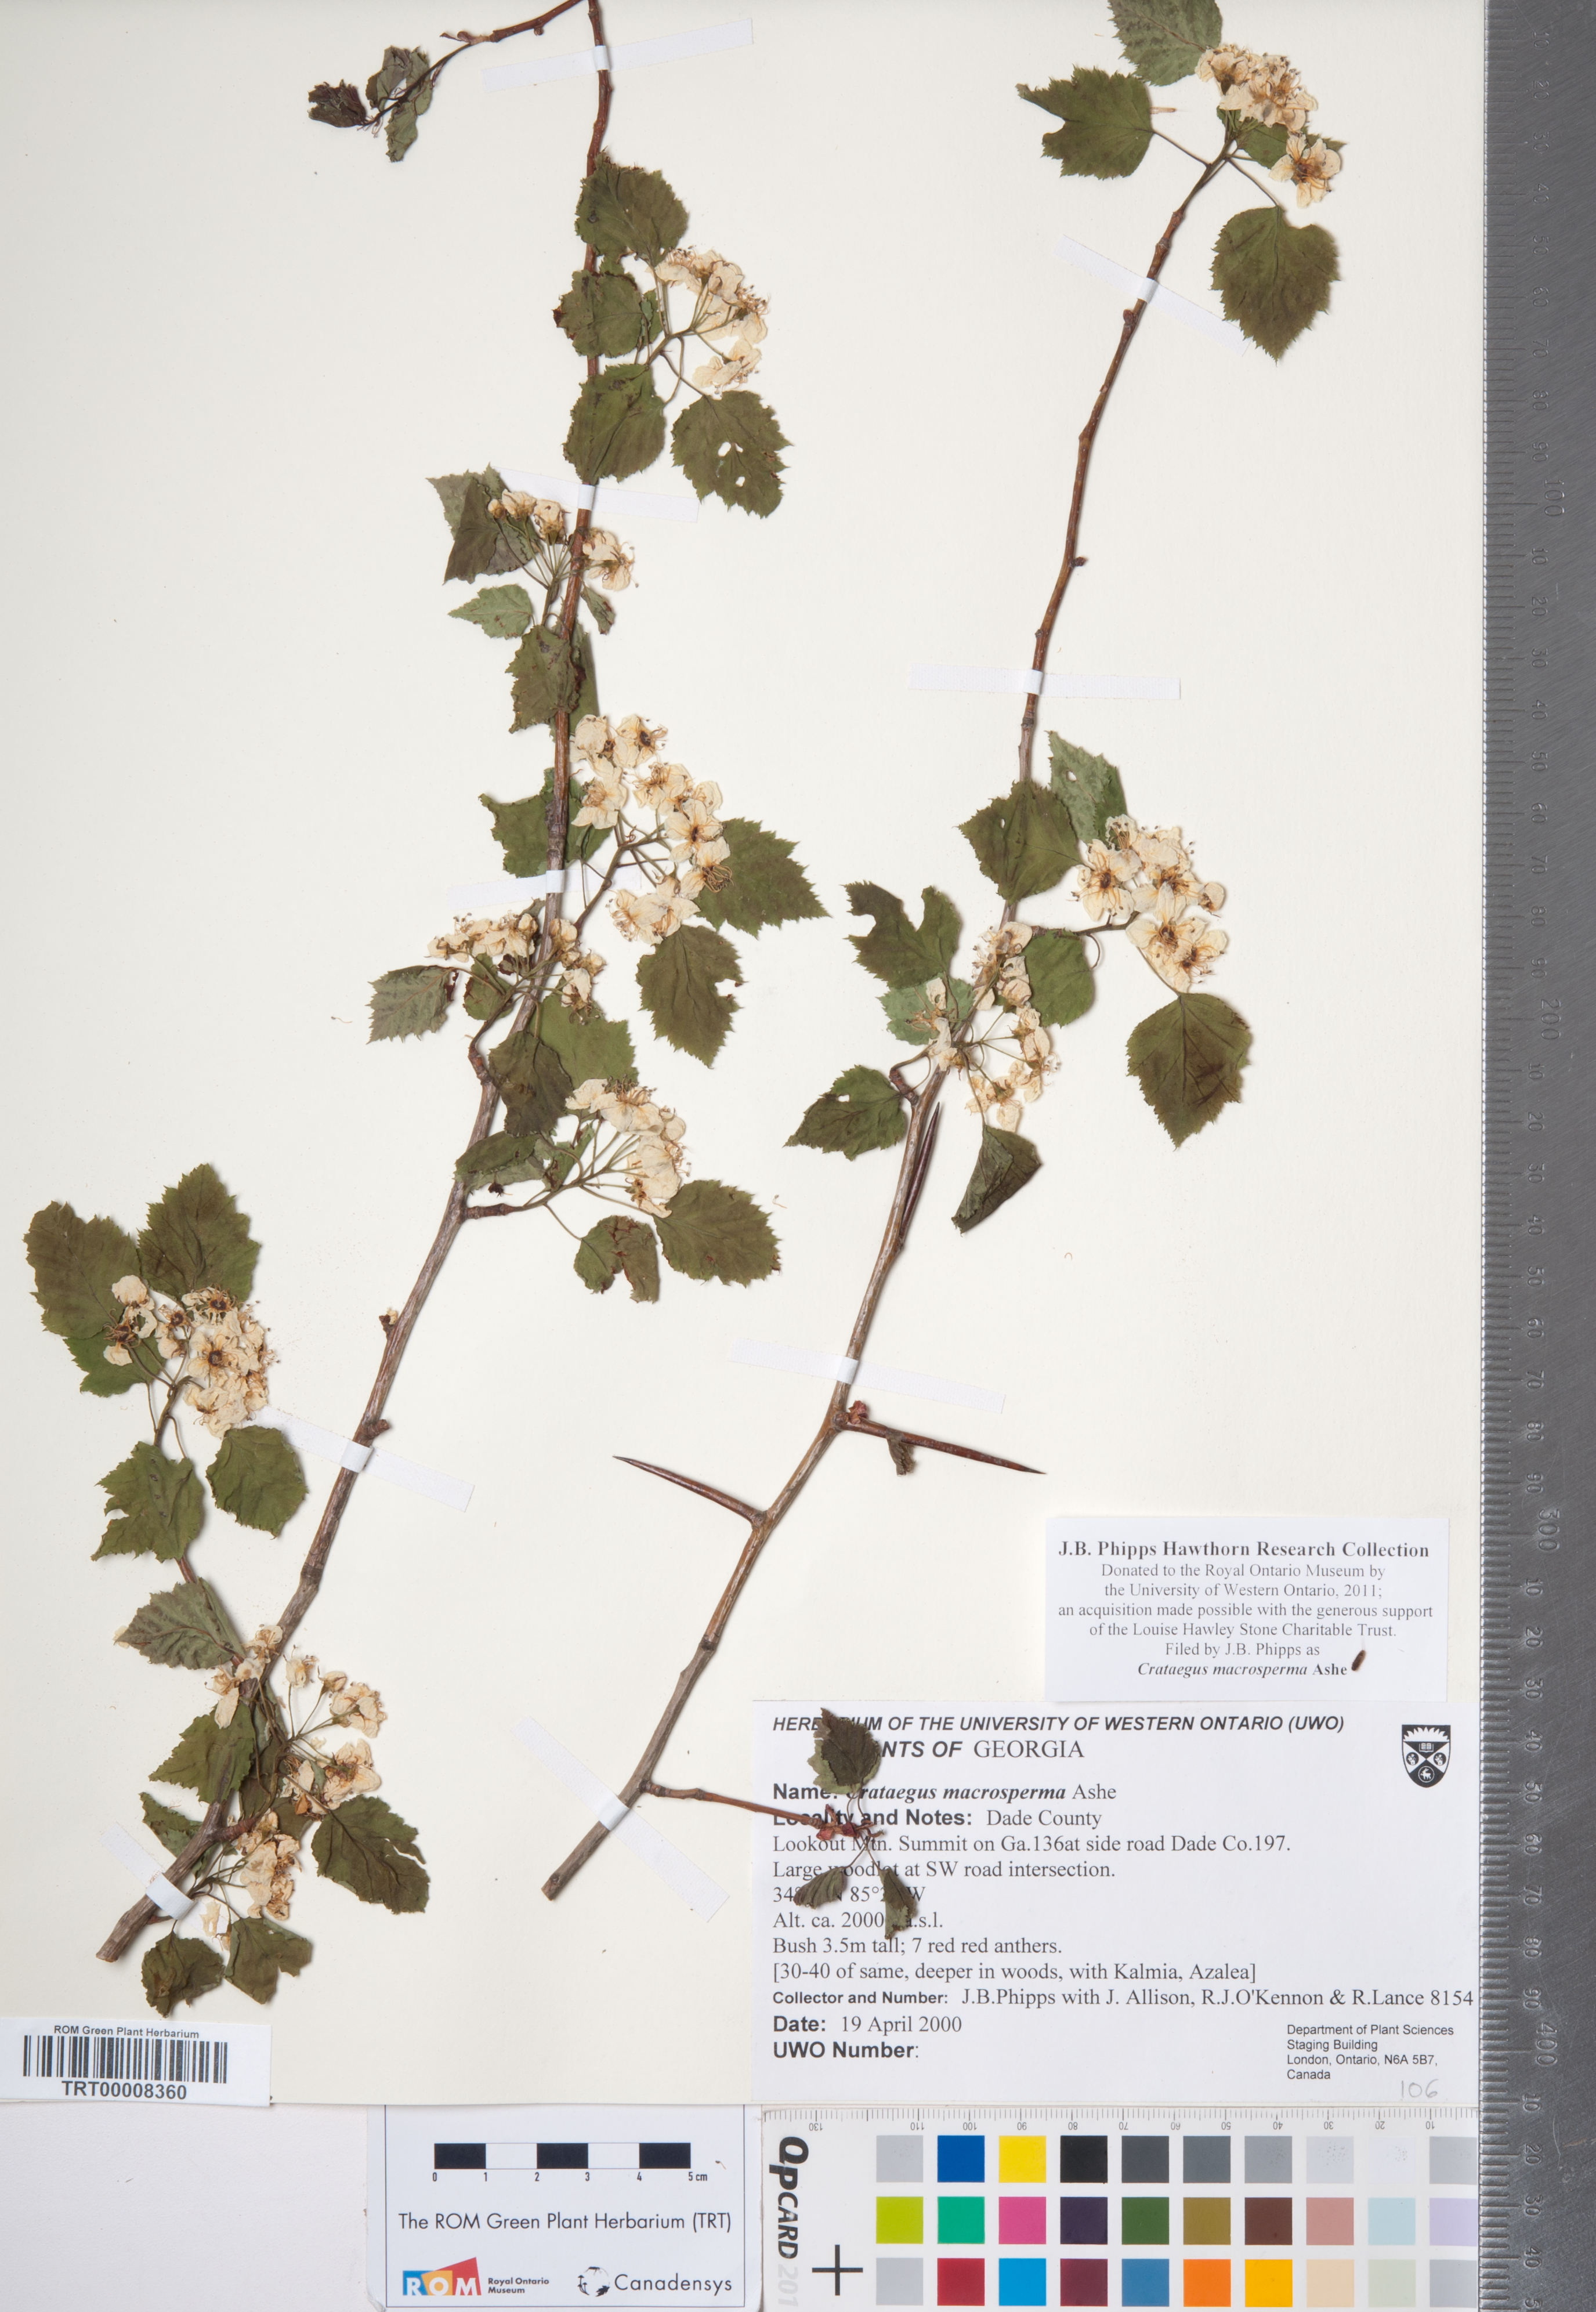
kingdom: Plantae
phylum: Tracheophyta
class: Magnoliopsida
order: Rosales
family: Rosaceae
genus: Crataegus
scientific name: Crataegus macrosperma
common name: Variable hawthorn
